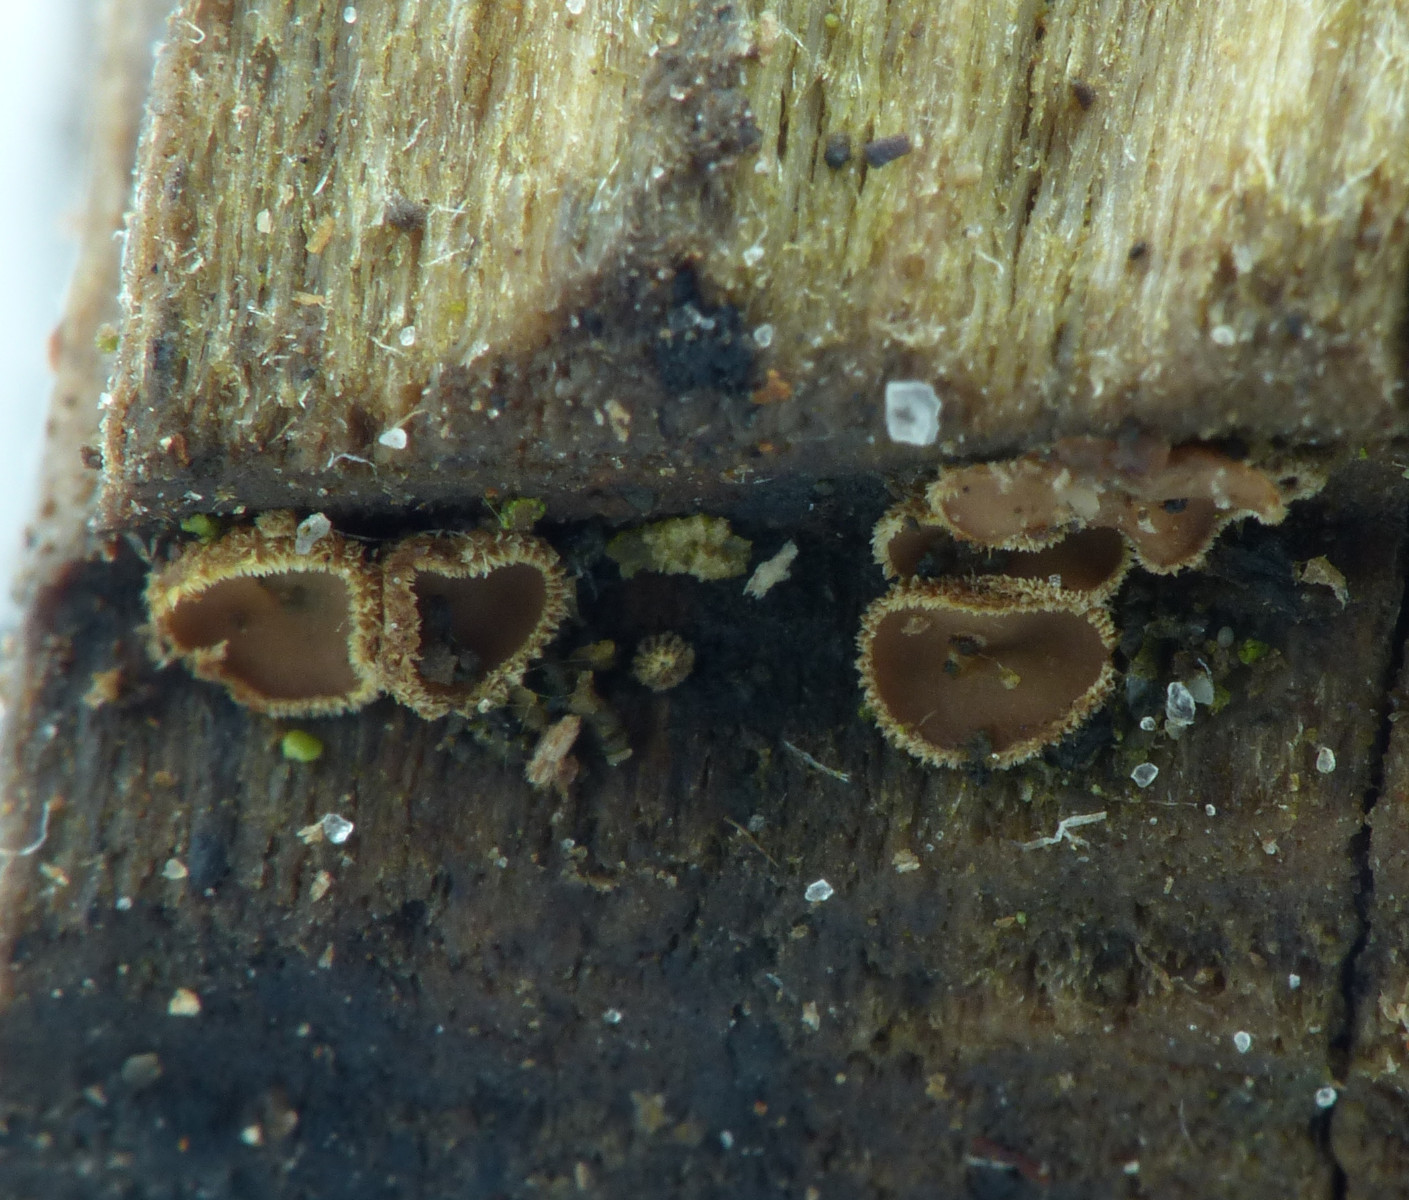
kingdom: Fungi
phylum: Ascomycota
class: Leotiomycetes
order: Helotiales
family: Lachnaceae
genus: Trichopeziza
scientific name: Trichopeziza subsulphurea
